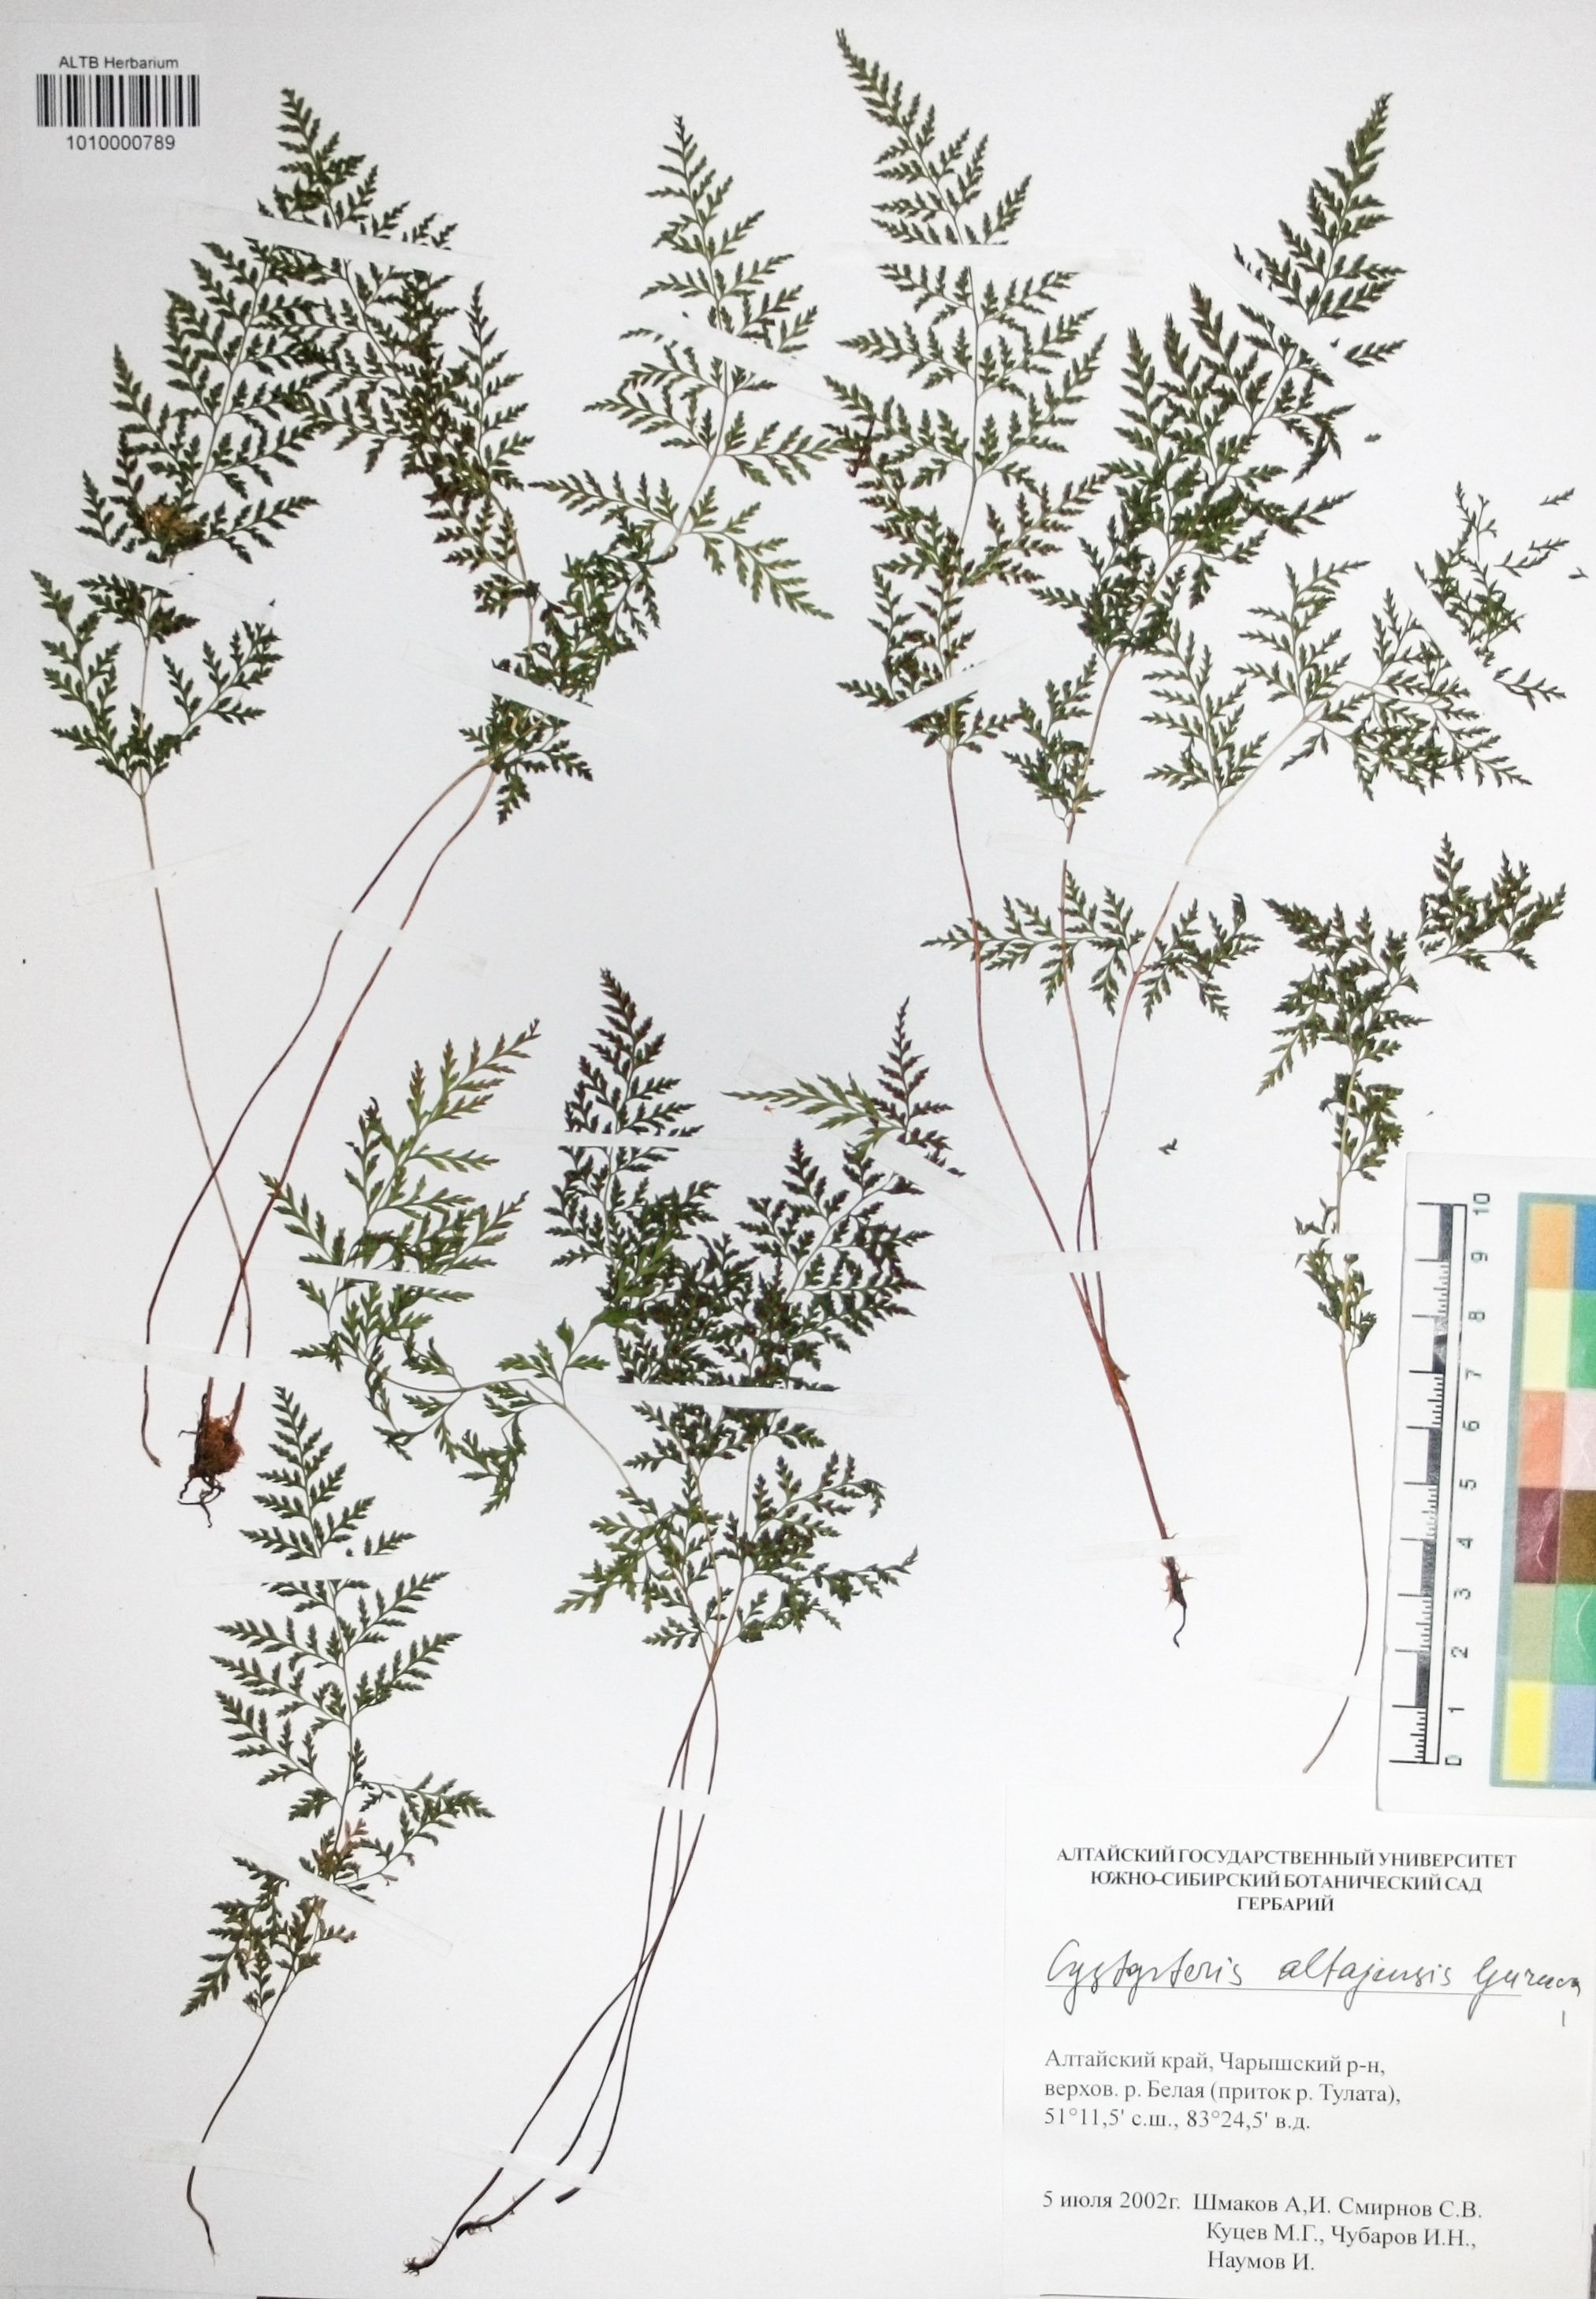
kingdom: Plantae
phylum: Tracheophyta
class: Polypodiopsida
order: Polypodiales
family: Cystopteridaceae
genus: Cystopteris
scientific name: Cystopteris diaphana
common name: Greenish bladder-fern
